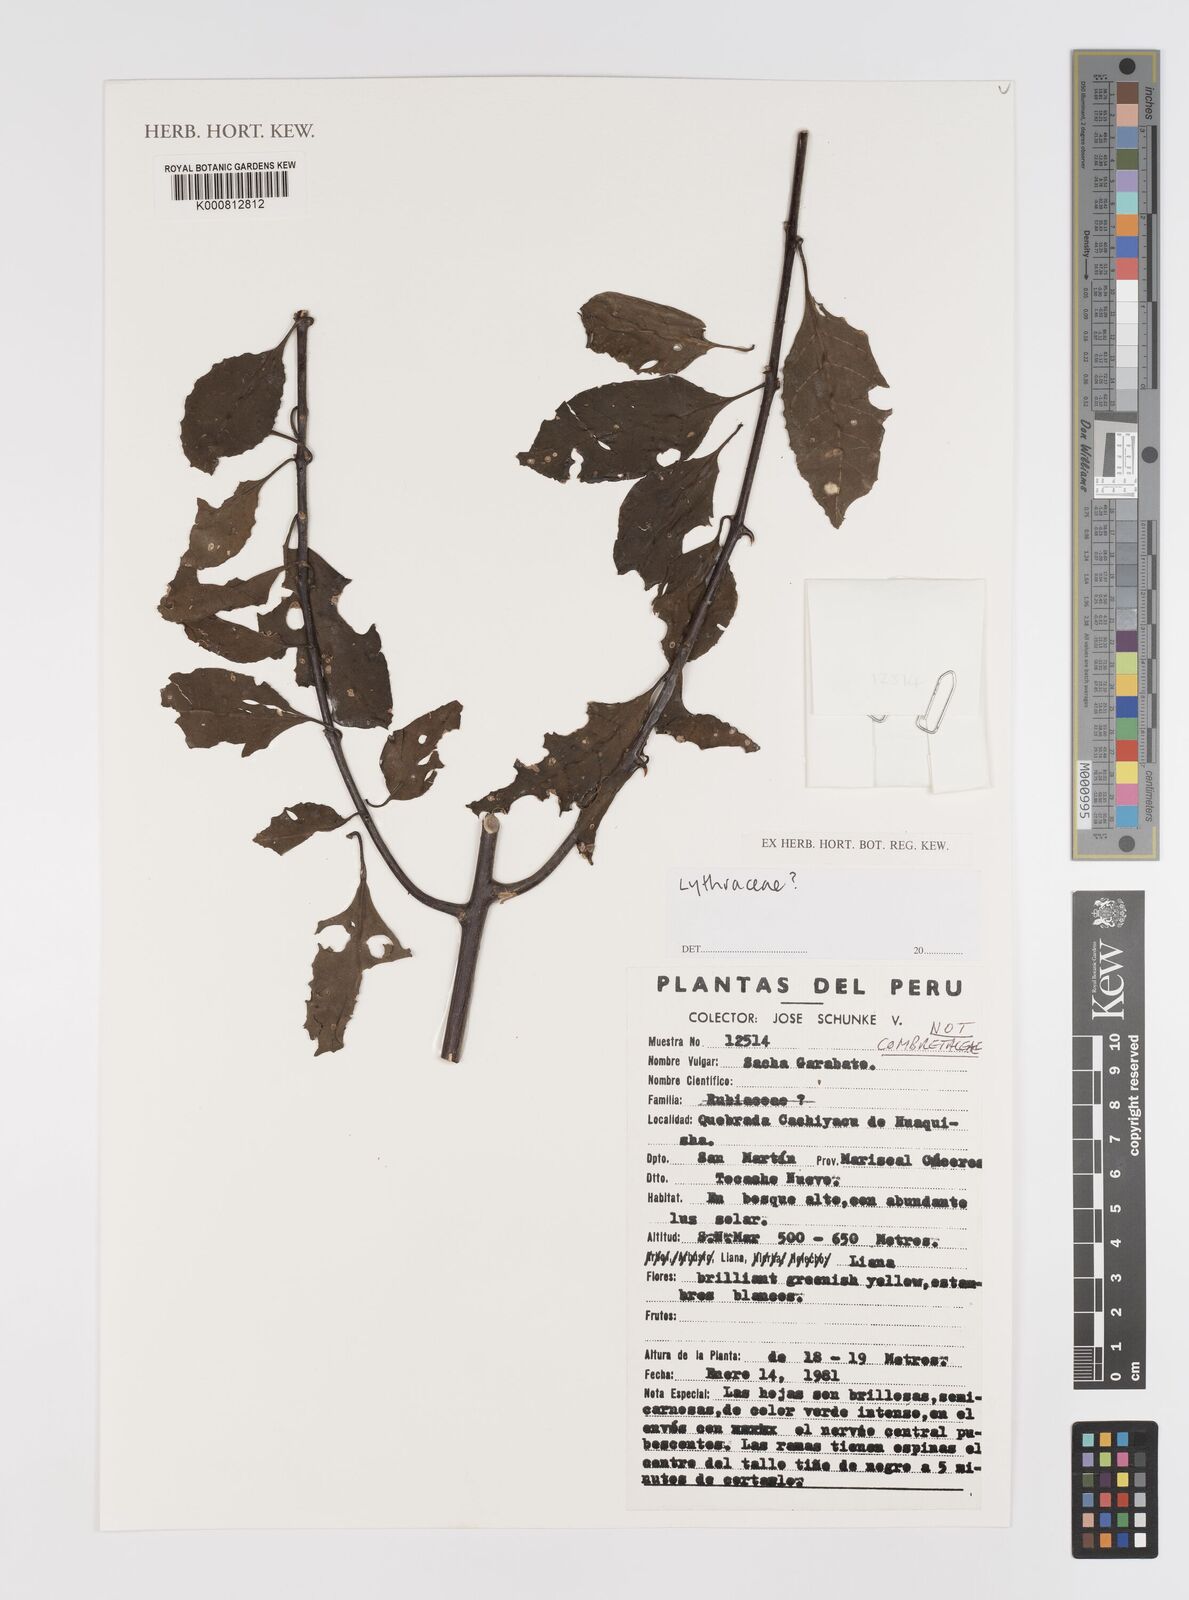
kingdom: Plantae
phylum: Tracheophyta
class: Magnoliopsida
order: Myrtales
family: Lythraceae
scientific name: Lythraceae
